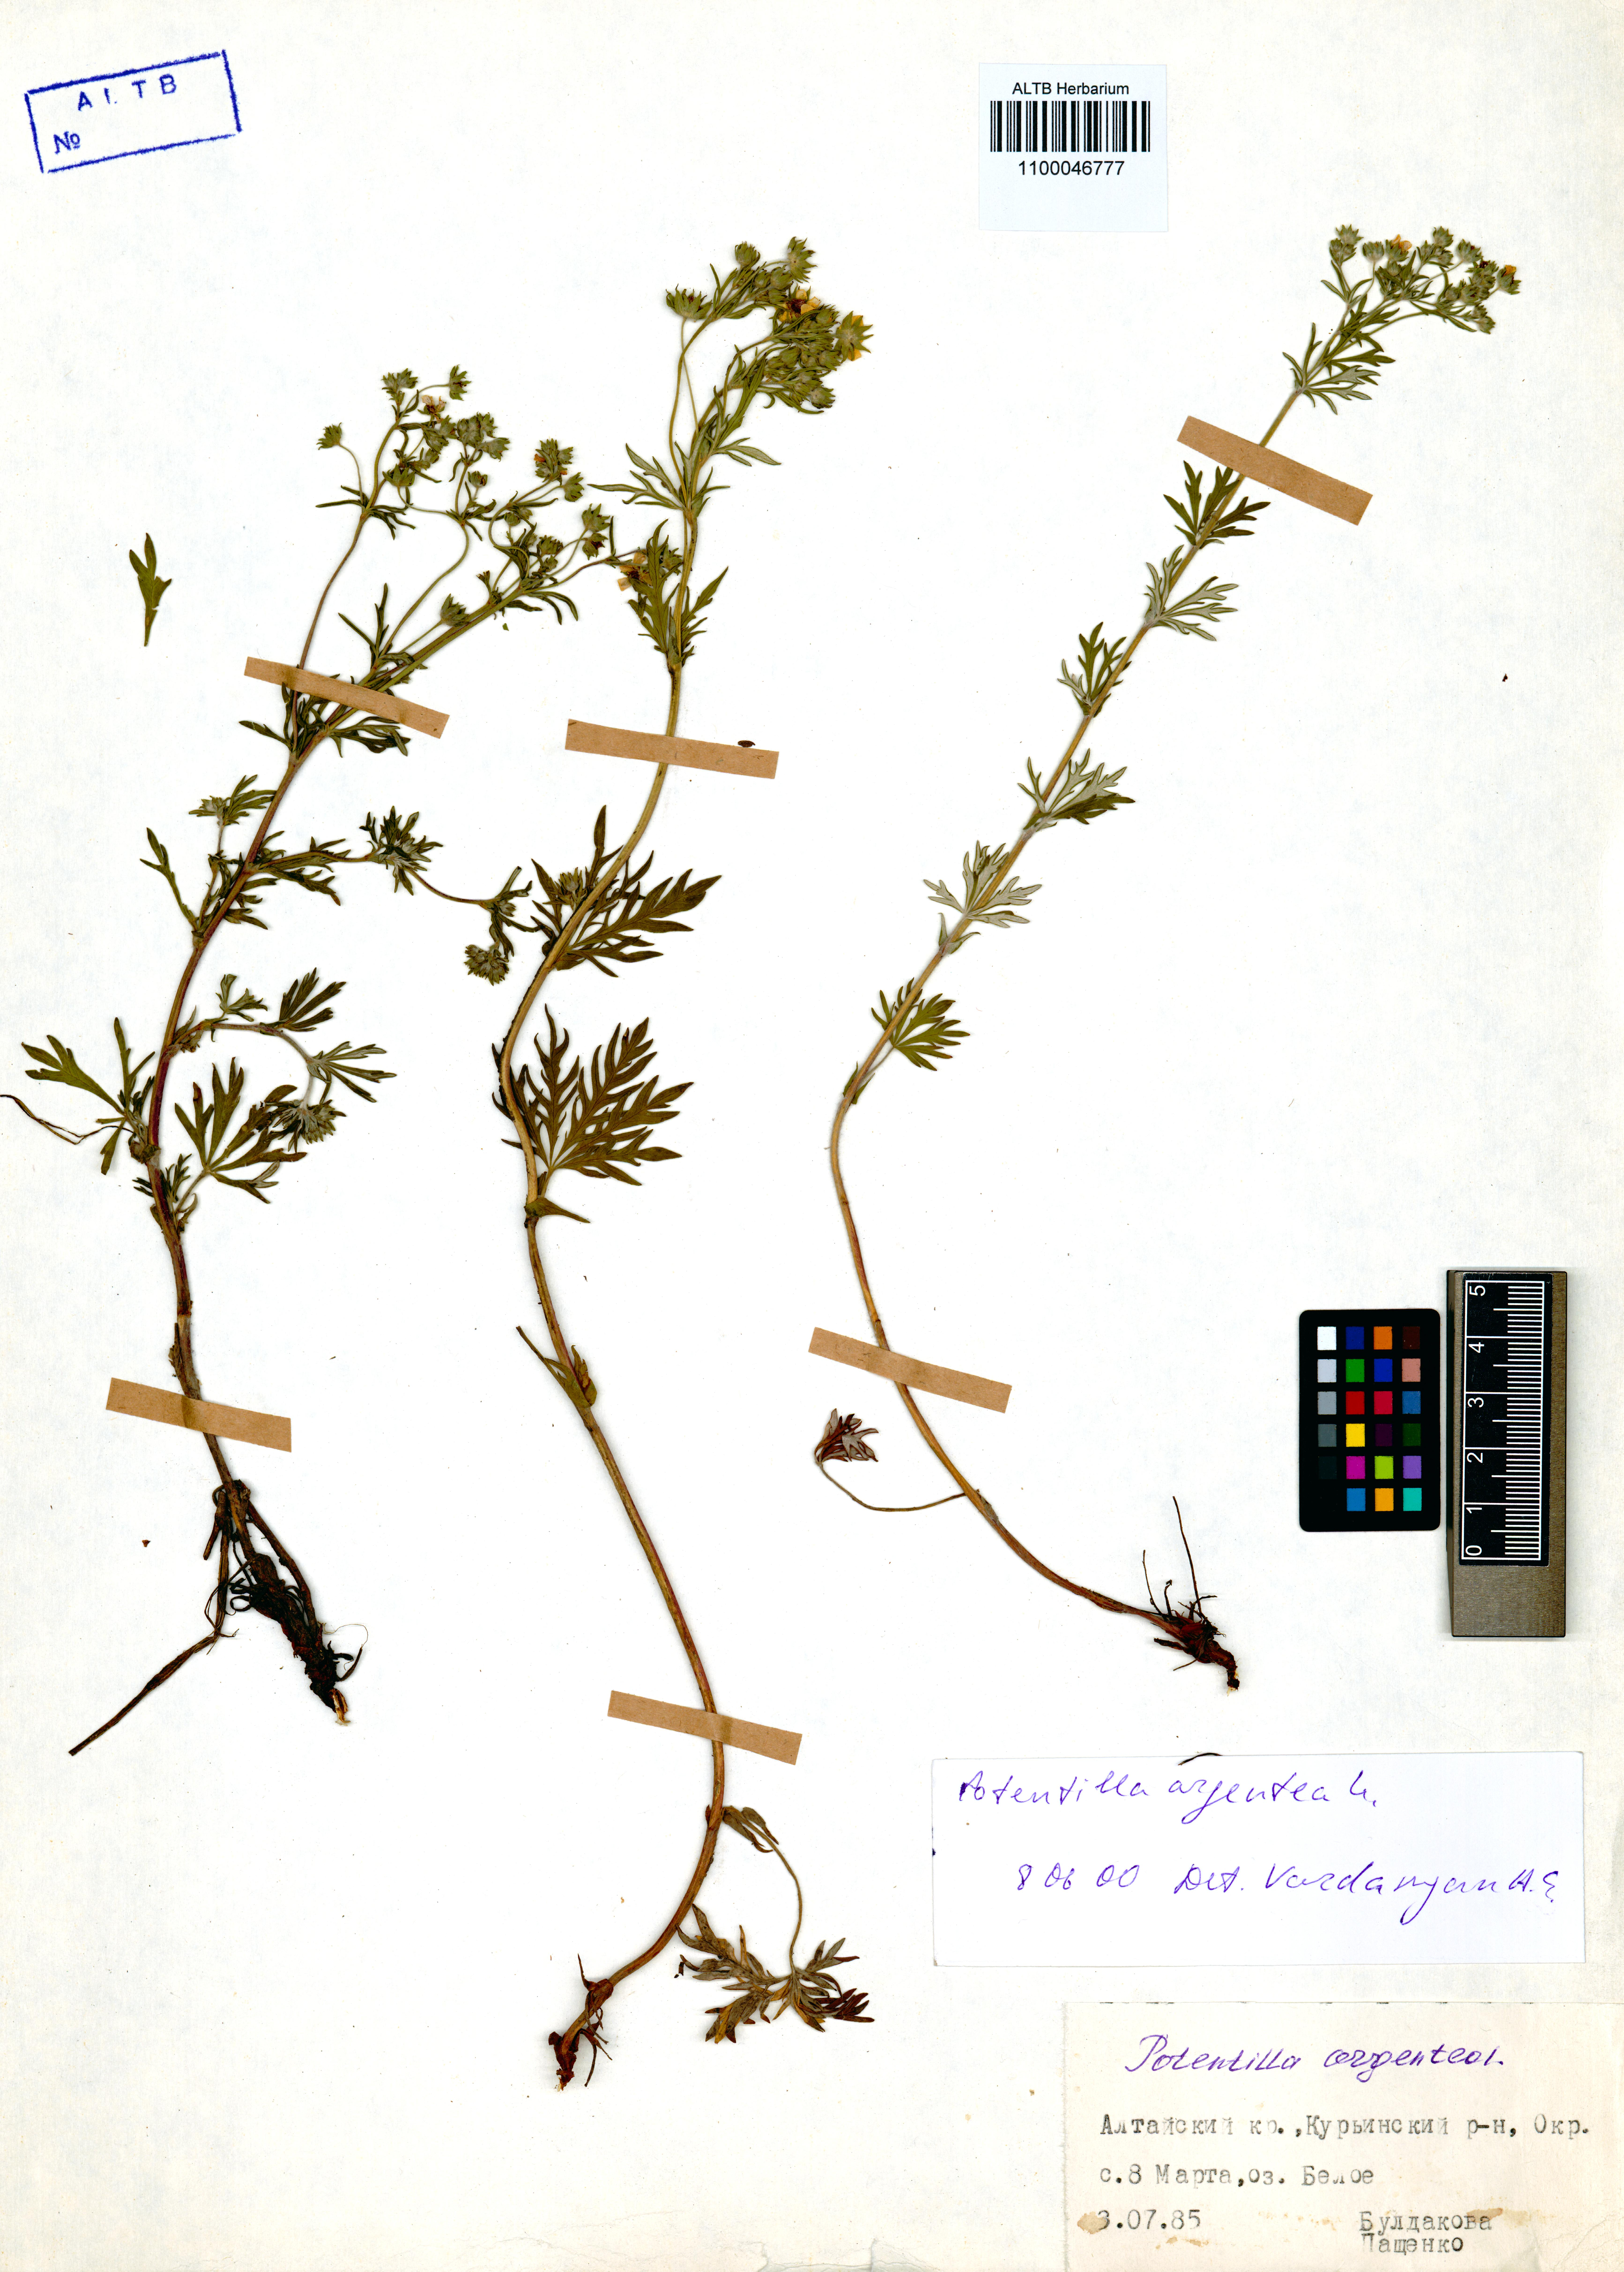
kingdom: Plantae
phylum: Tracheophyta
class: Magnoliopsida
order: Rosales
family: Rosaceae
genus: Potentilla
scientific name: Potentilla argentea
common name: Hoary cinquefoil
